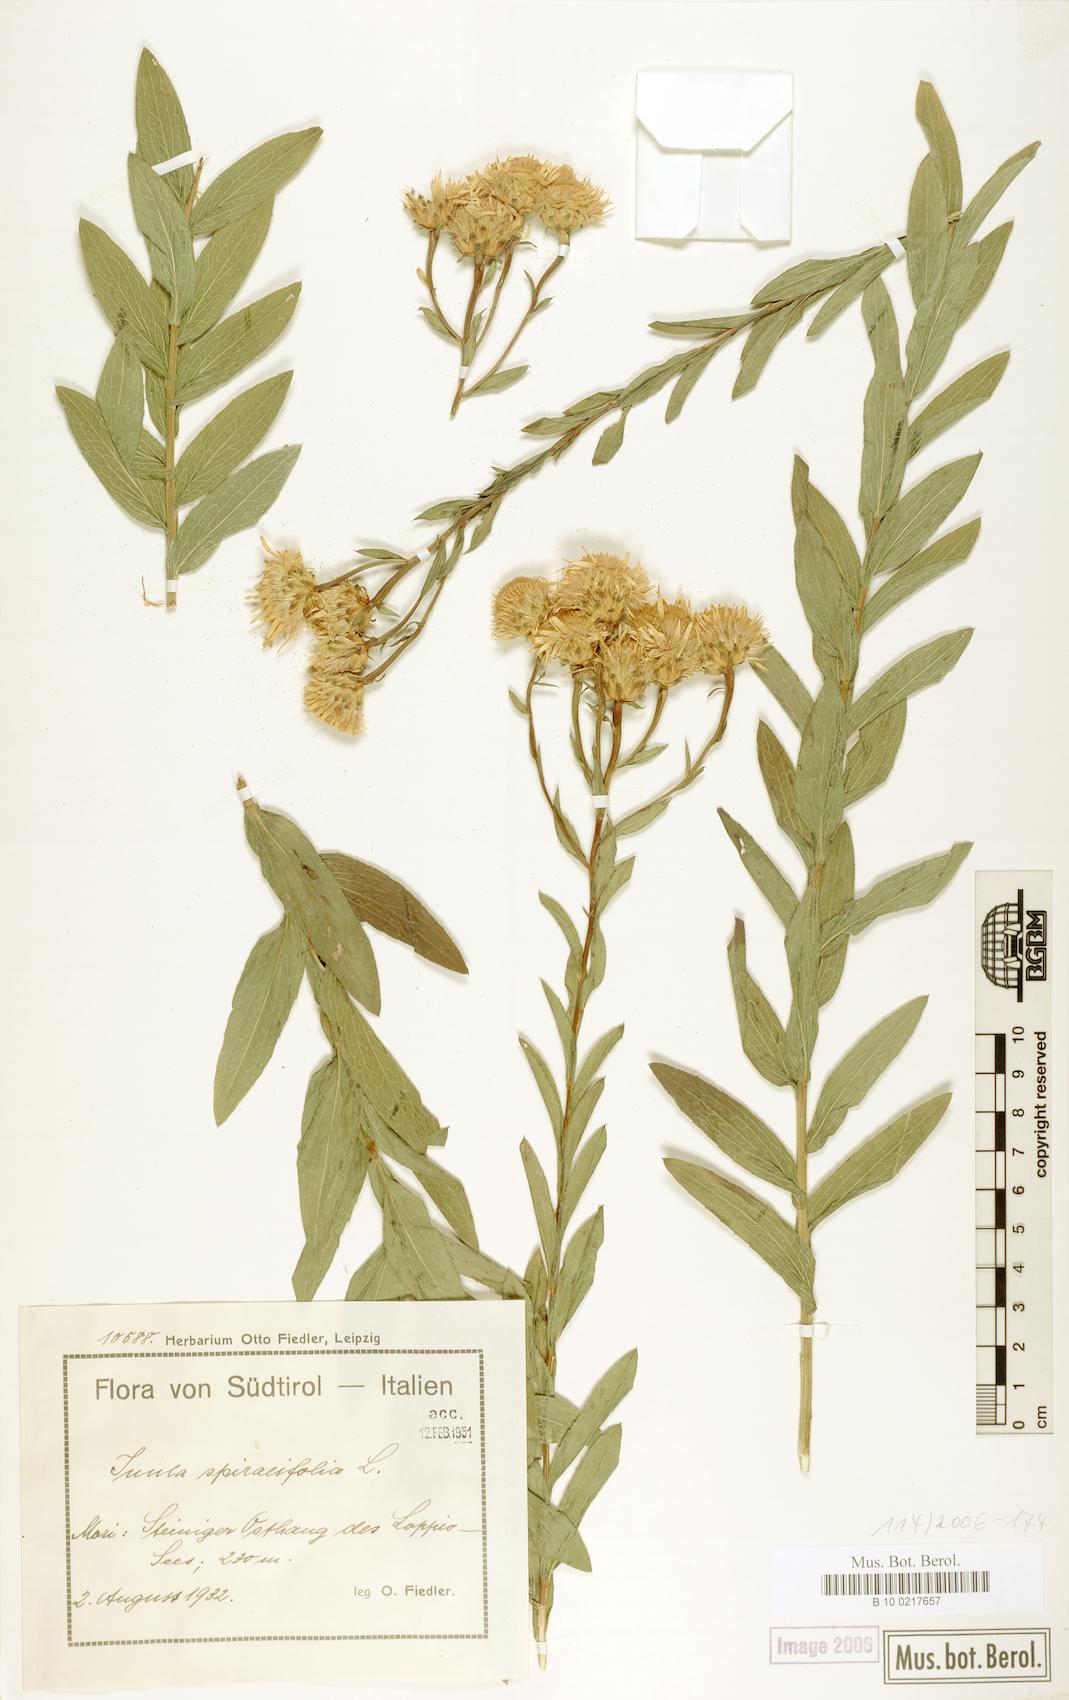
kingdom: Plantae
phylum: Tracheophyta
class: Magnoliopsida
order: Asterales
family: Asteraceae
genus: Pentanema
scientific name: Pentanema spiraeifolium
